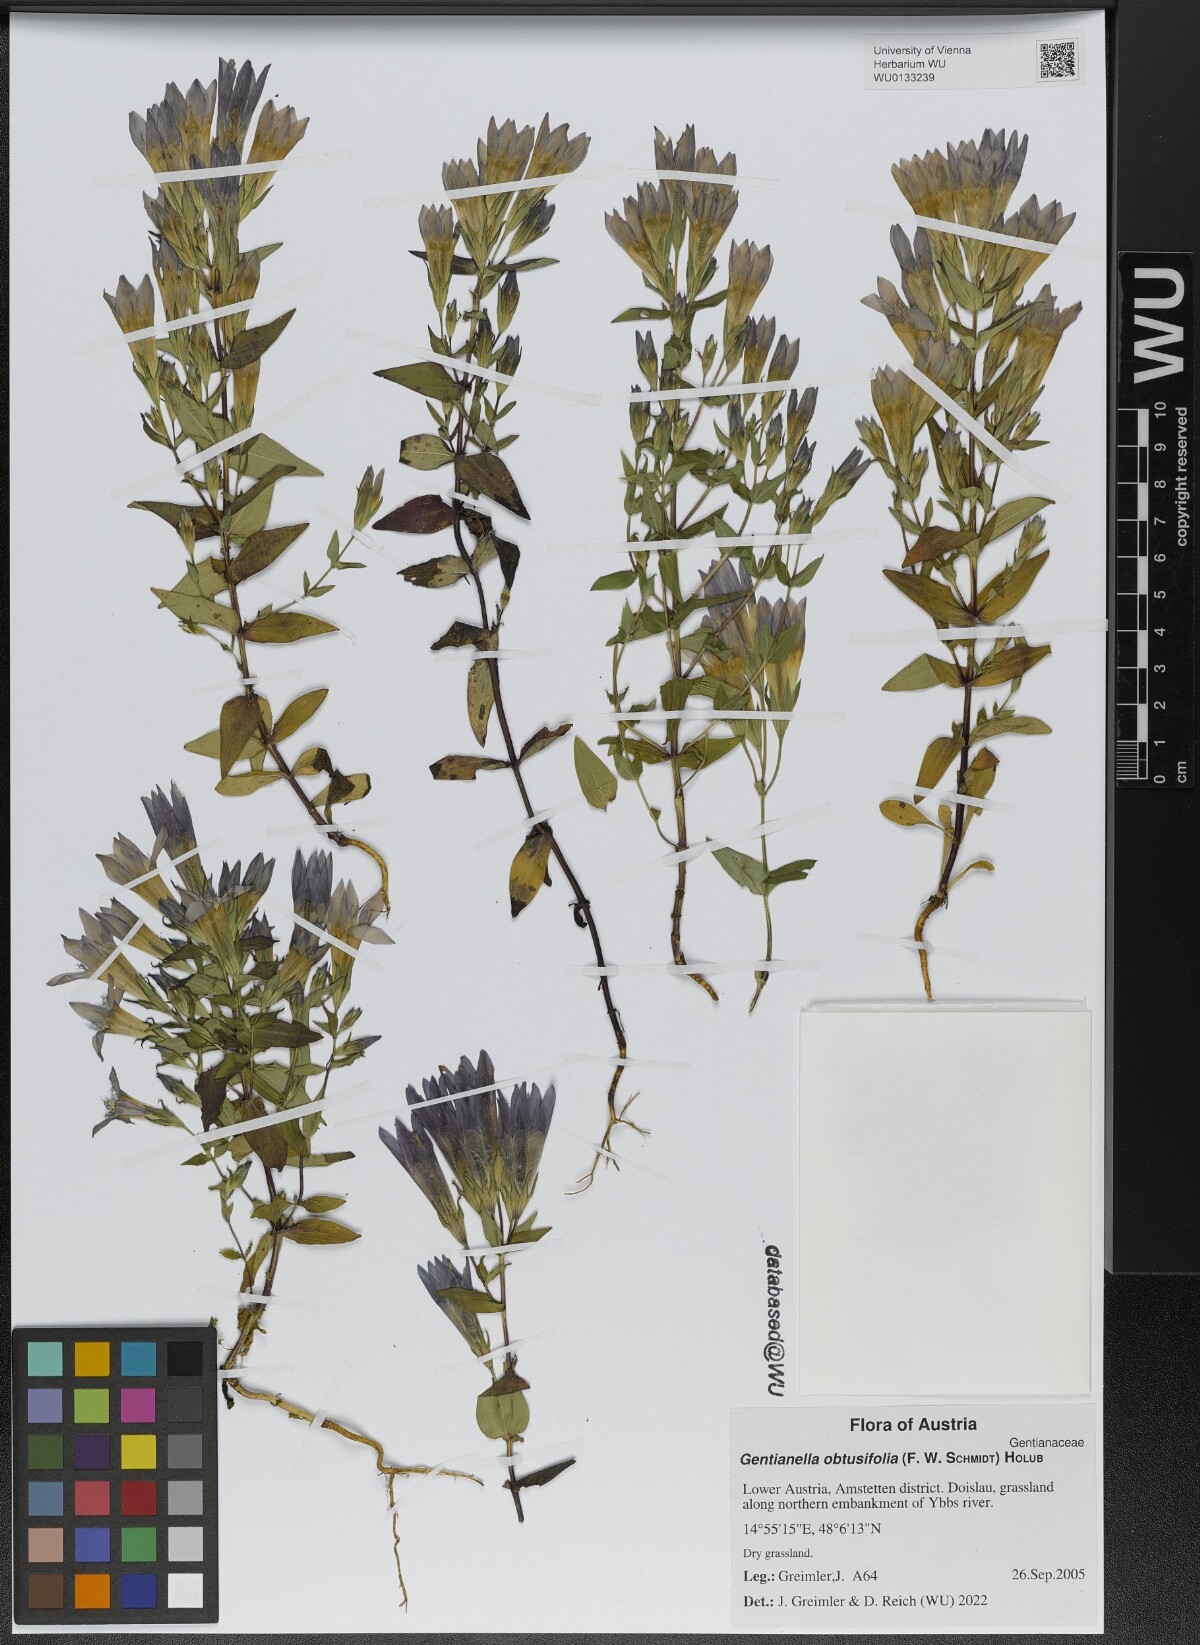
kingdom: Plantae
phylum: Tracheophyta
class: Magnoliopsida
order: Gentianales
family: Gentianaceae
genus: Gentianella
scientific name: Gentianella obtusifolia
